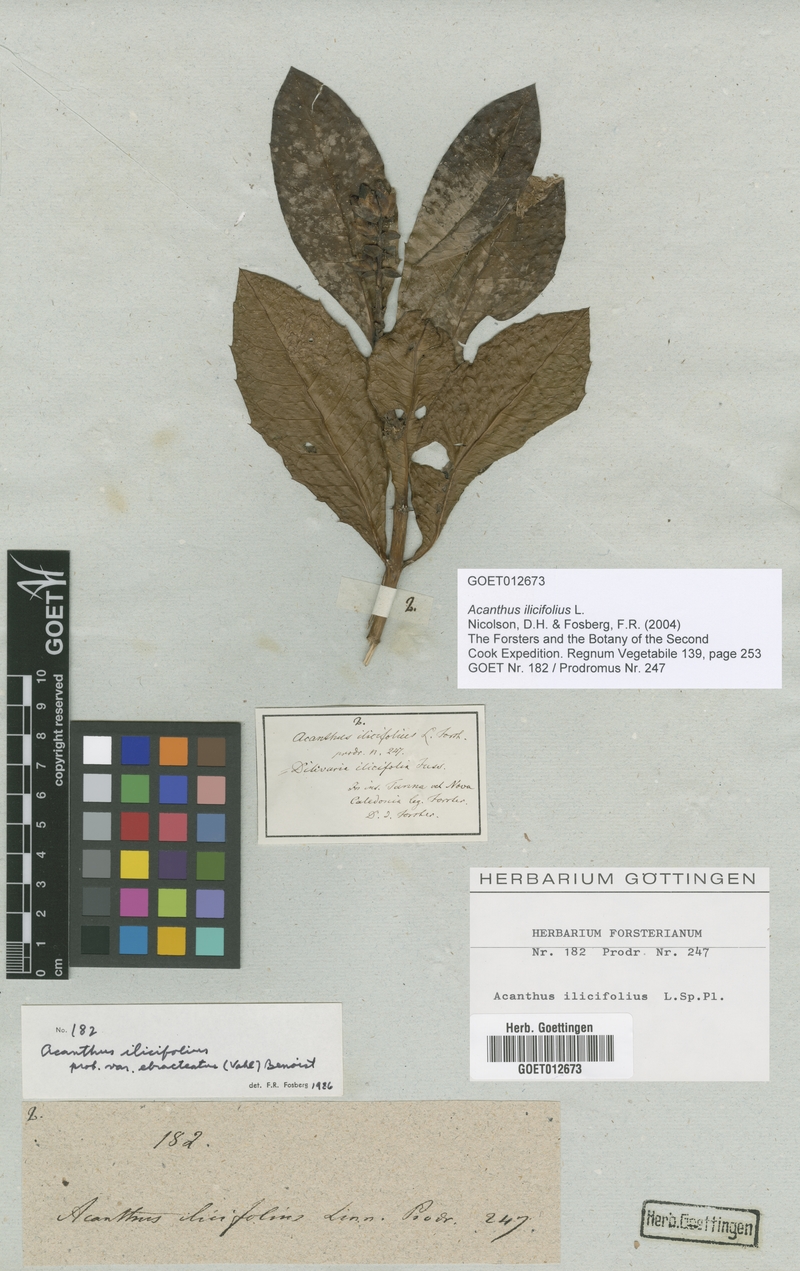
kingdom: Plantae
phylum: Tracheophyta
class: Magnoliopsida
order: Lamiales
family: Acanthaceae
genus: Acanthus
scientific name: Acanthus ilicifolius
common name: Holy mangrove
